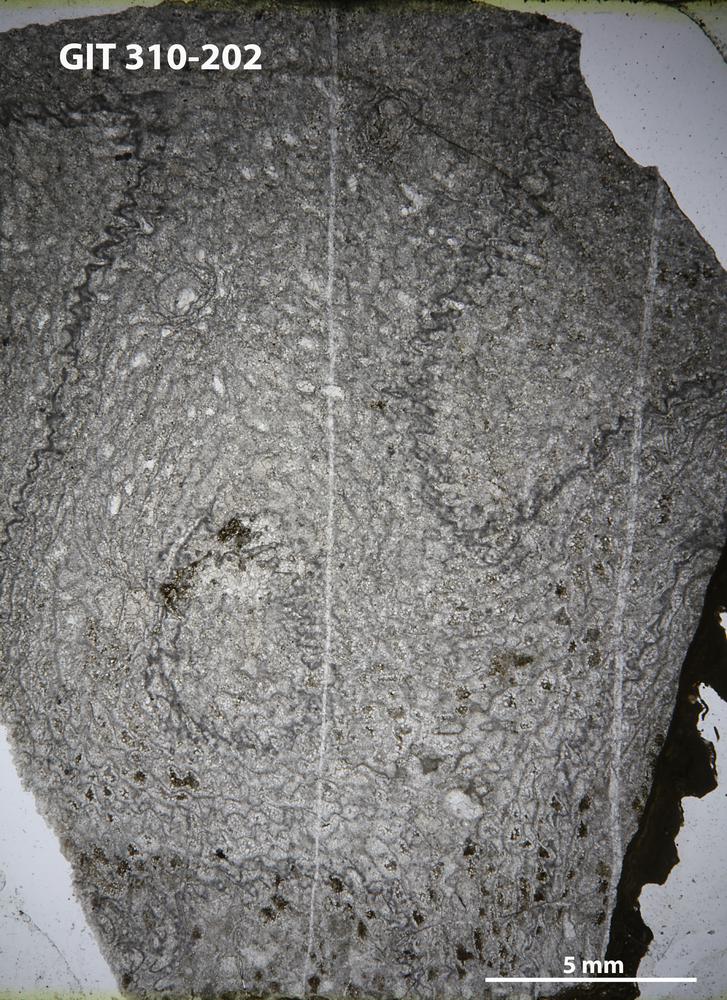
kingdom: Animalia
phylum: Porifera
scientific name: Porifera
